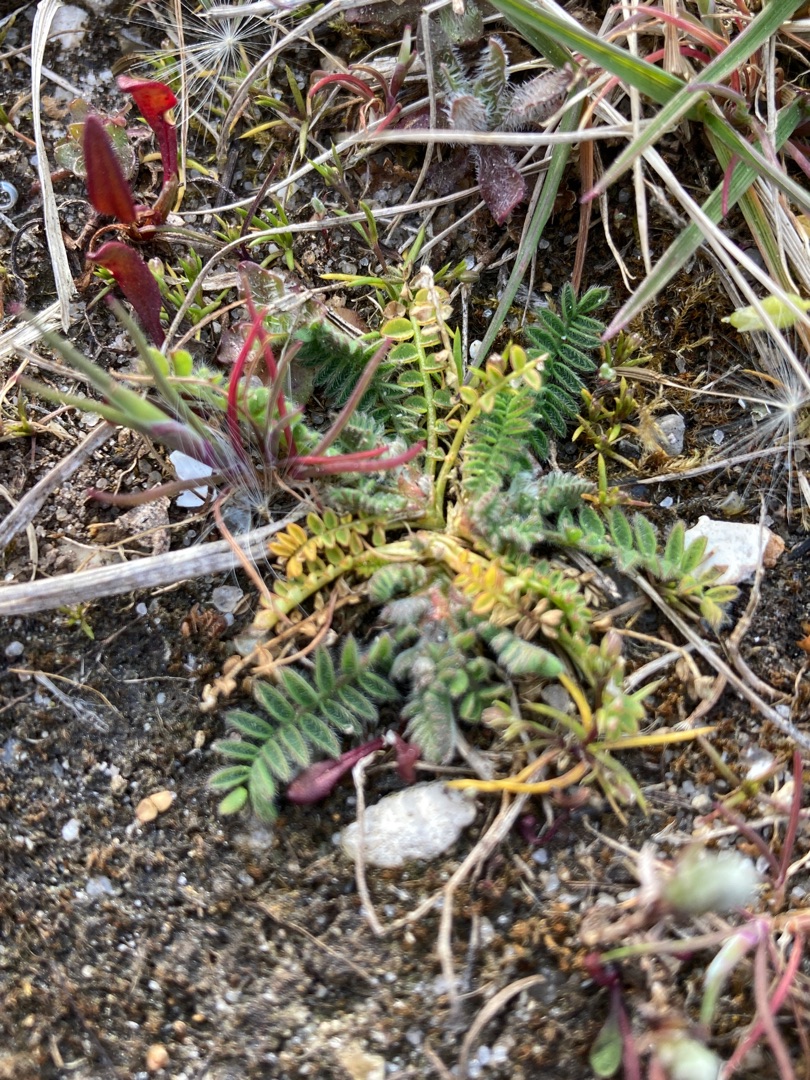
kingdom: Plantae
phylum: Tracheophyta
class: Magnoliopsida
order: Fabales
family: Fabaceae
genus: Ornithopus
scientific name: Ornithopus perpusillus
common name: Liden fugleklo
